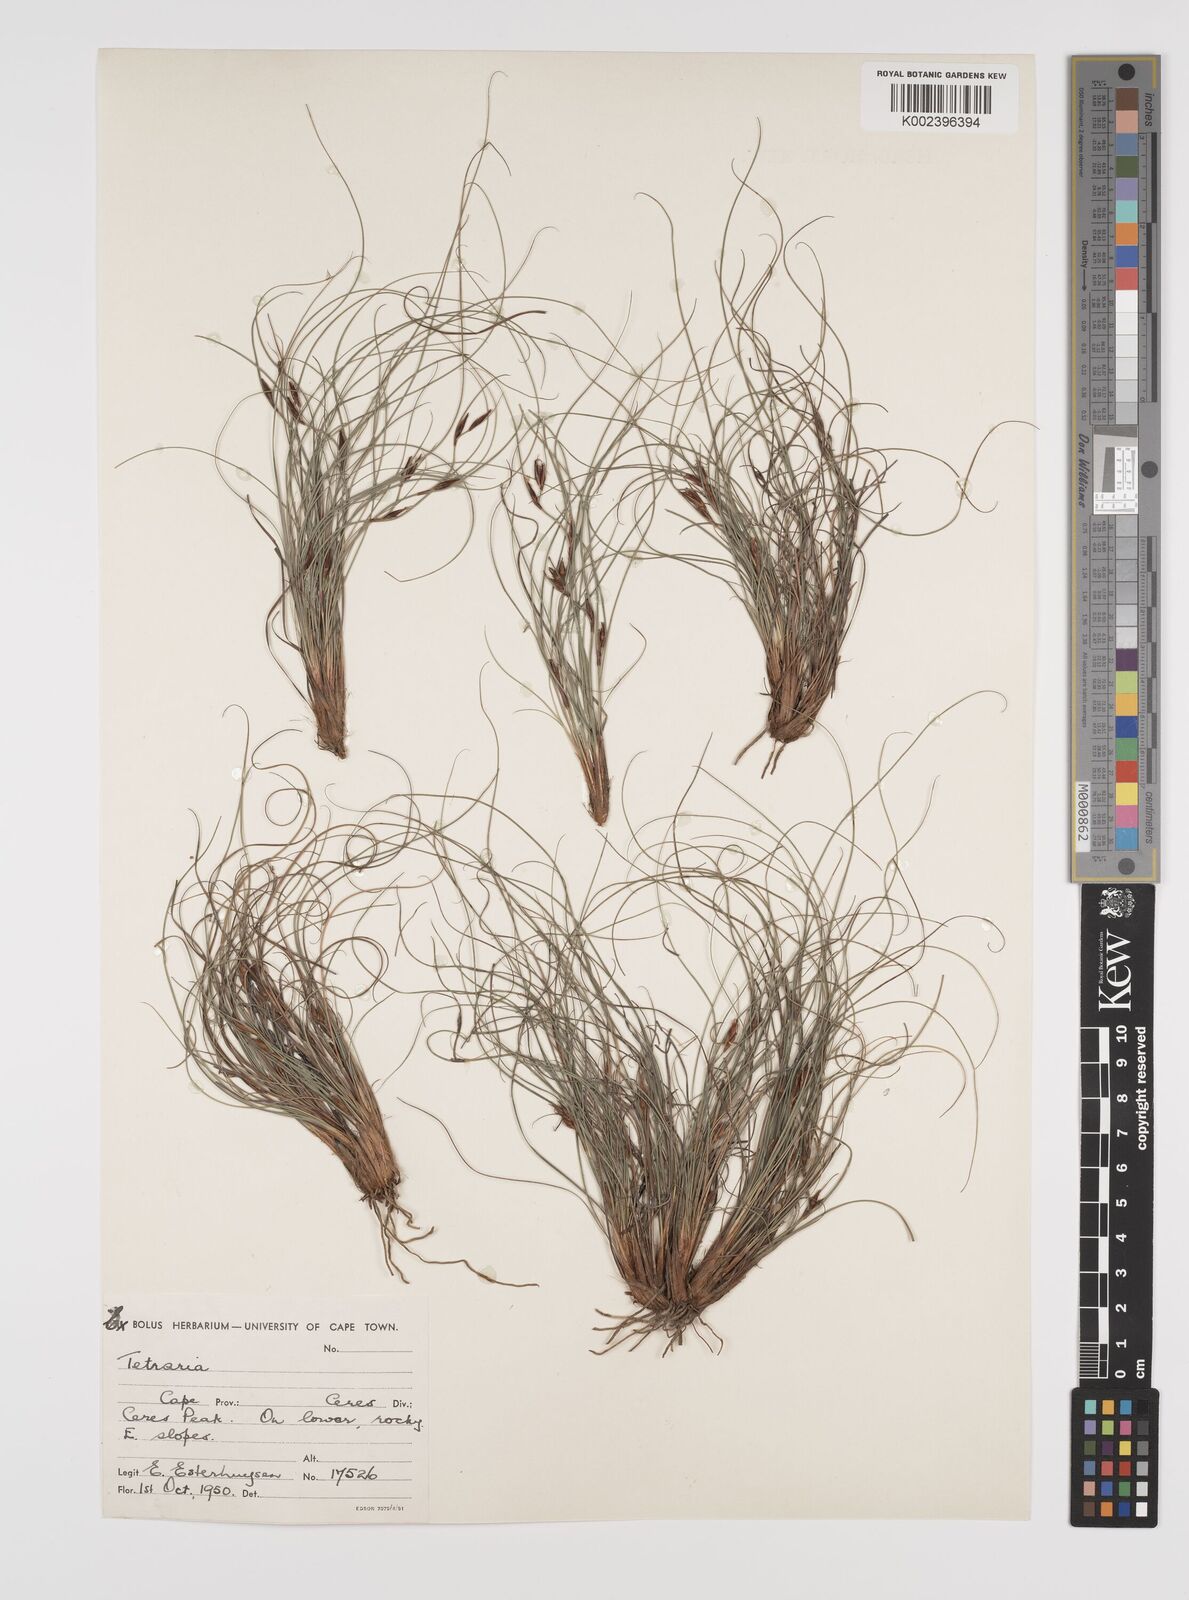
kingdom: Plantae
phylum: Tracheophyta
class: Liliopsida
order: Poales
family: Cyperaceae
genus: Tetraria
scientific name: Tetraria
